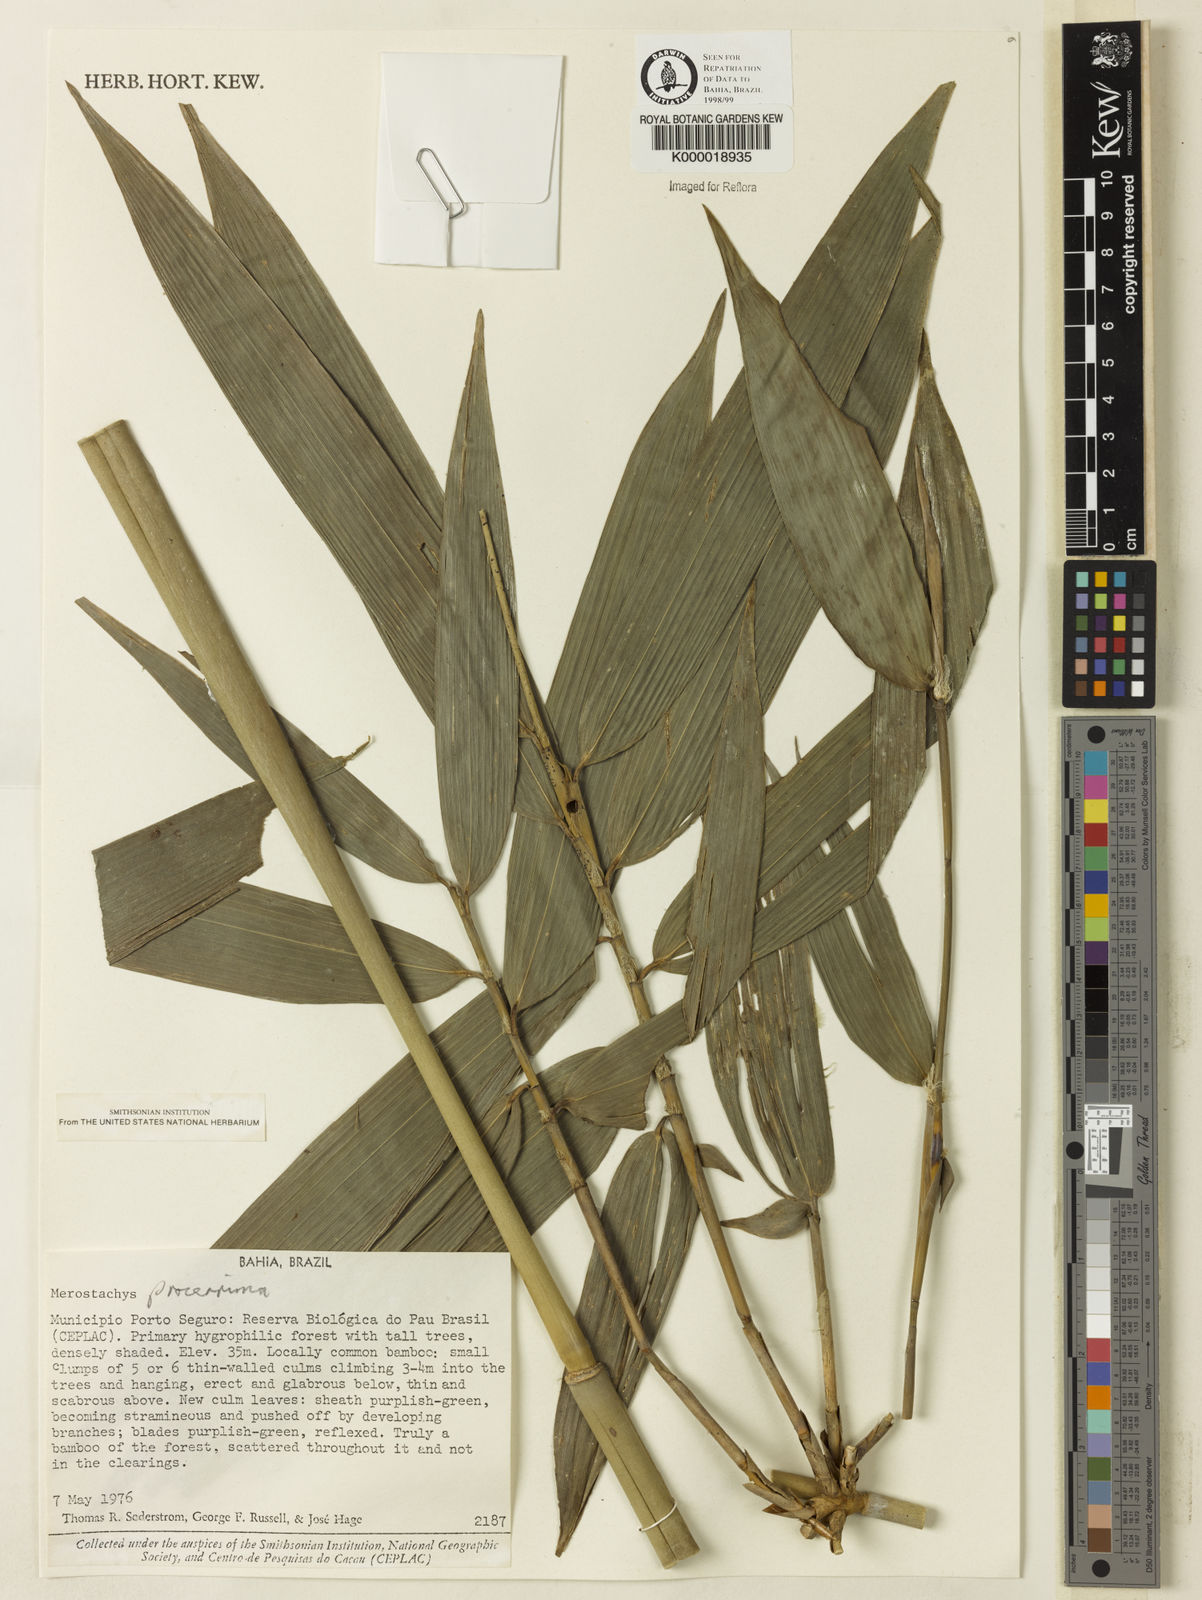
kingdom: Plantae
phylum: Tracheophyta
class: Liliopsida
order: Poales
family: Poaceae
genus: Merostachys
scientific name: Merostachys procerrima
